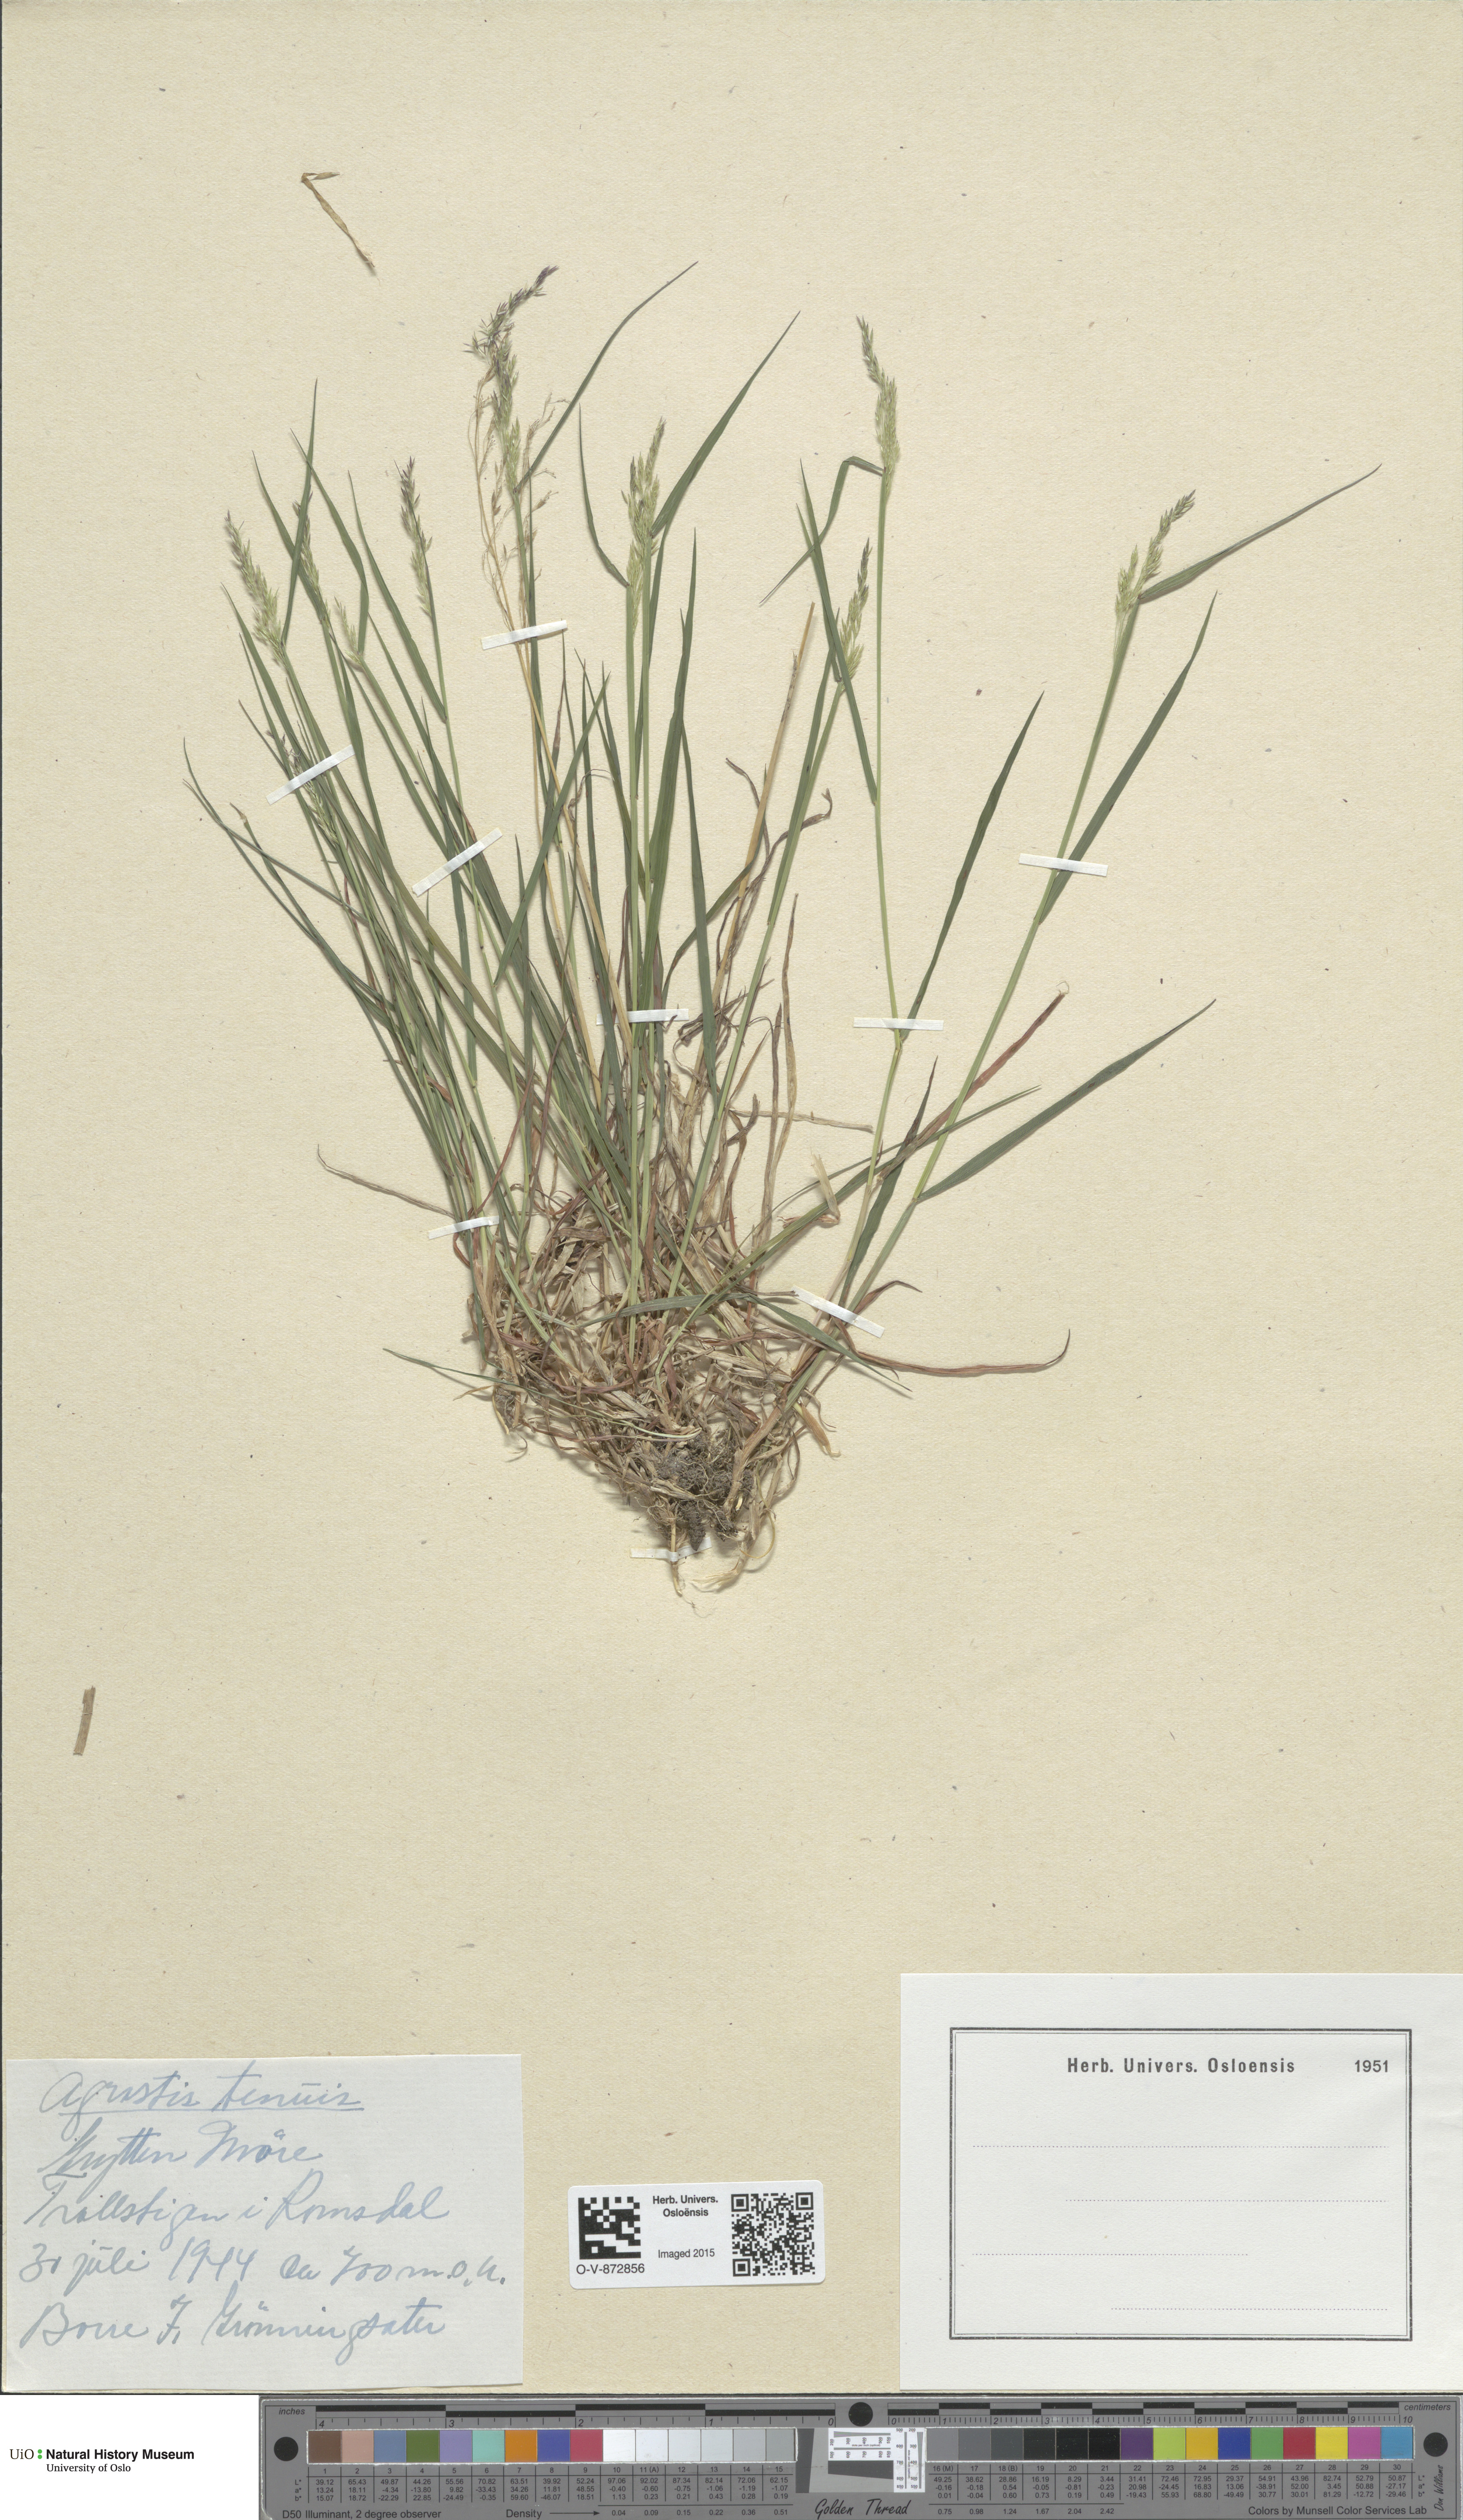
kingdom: Plantae
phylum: Tracheophyta
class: Liliopsida
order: Poales
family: Poaceae
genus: Agrostis
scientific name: Agrostis capillaris
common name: Colonial bentgrass
